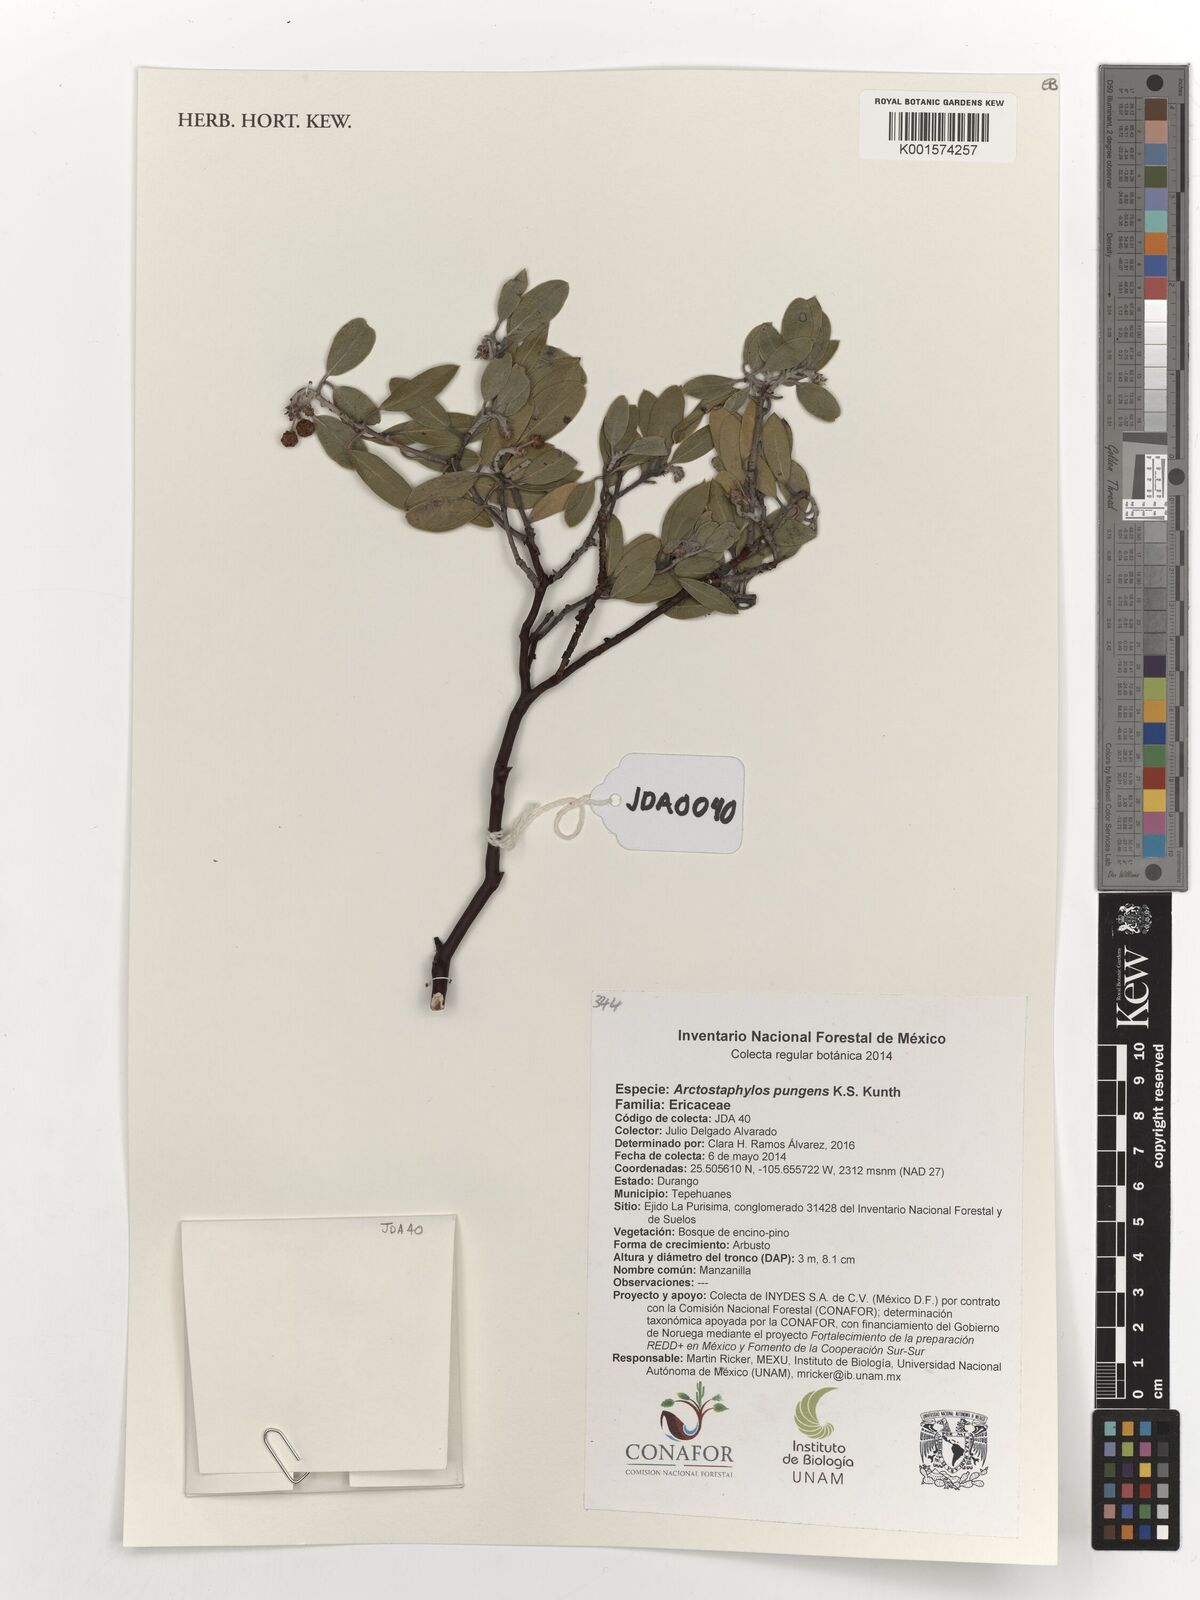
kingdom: Plantae
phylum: Tracheophyta
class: Magnoliopsida
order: Ericales
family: Ericaceae
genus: Arctostaphylos
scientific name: Arctostaphylos pungens
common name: Mexican manzanita
